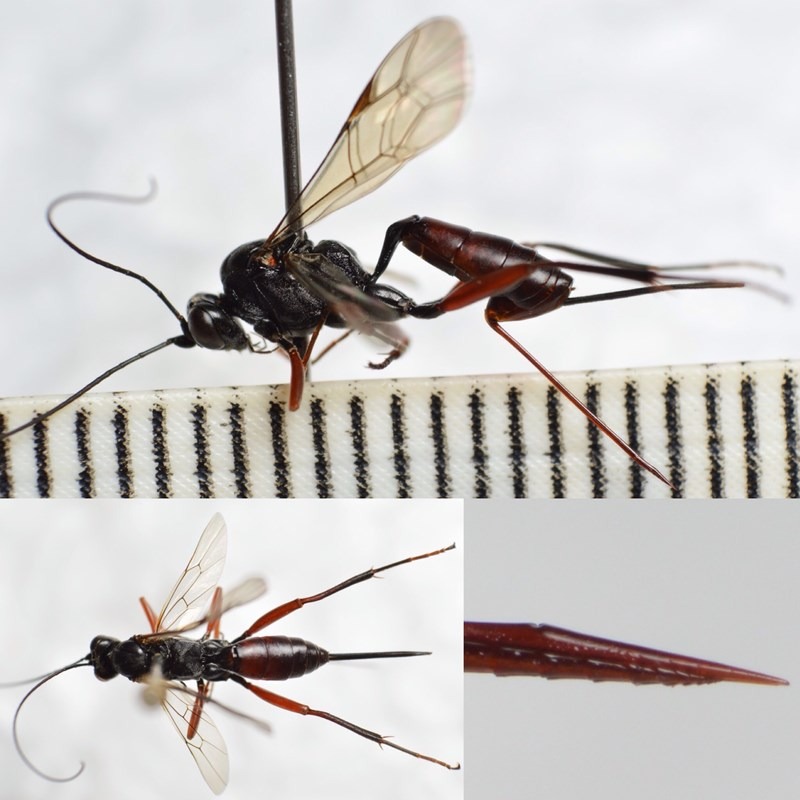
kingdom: Animalia
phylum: Arthropoda
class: Insecta
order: Hymenoptera
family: Ichneumonidae
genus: Cryptus
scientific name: Cryptus armator
